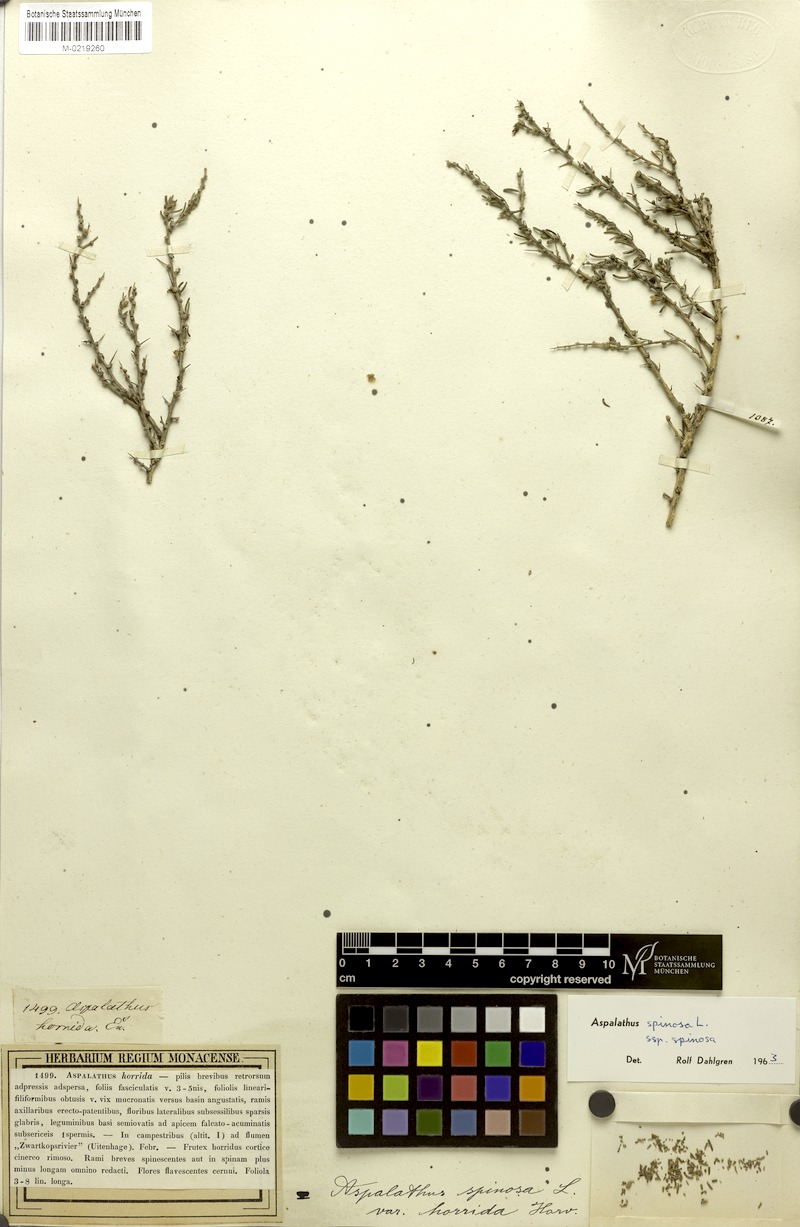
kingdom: Plantae
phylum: Tracheophyta
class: Magnoliopsida
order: Fabales
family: Fabaceae
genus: Aspalathus
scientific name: Aspalathus spinosa
